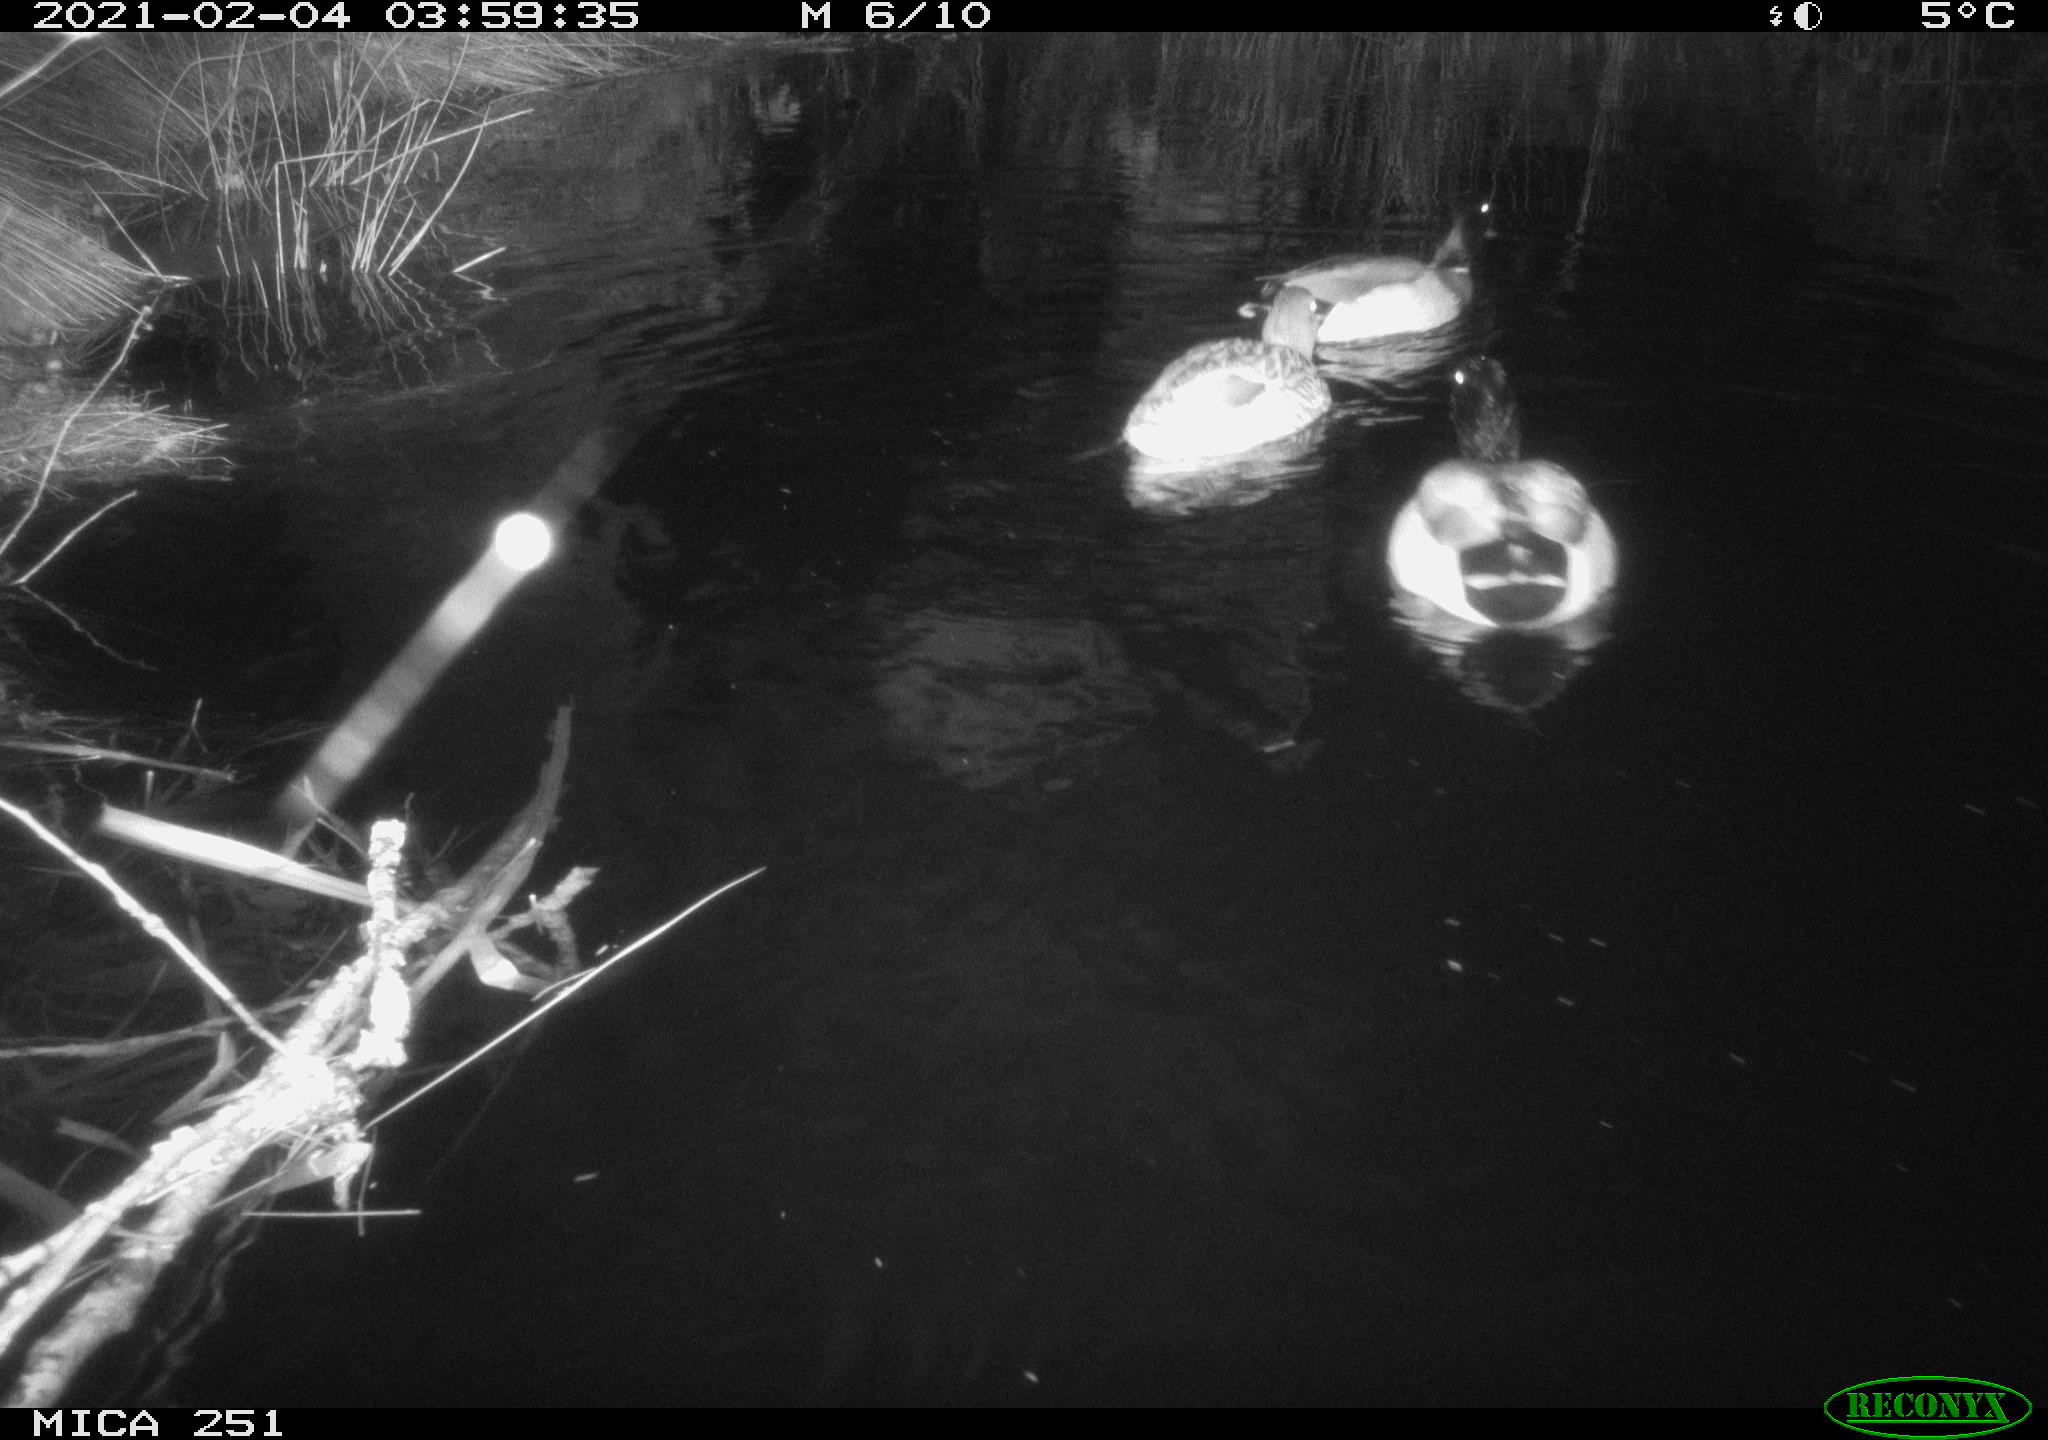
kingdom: Animalia
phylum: Chordata
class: Aves
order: Anseriformes
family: Anatidae
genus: Anas
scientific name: Anas platyrhynchos
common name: Mallard
